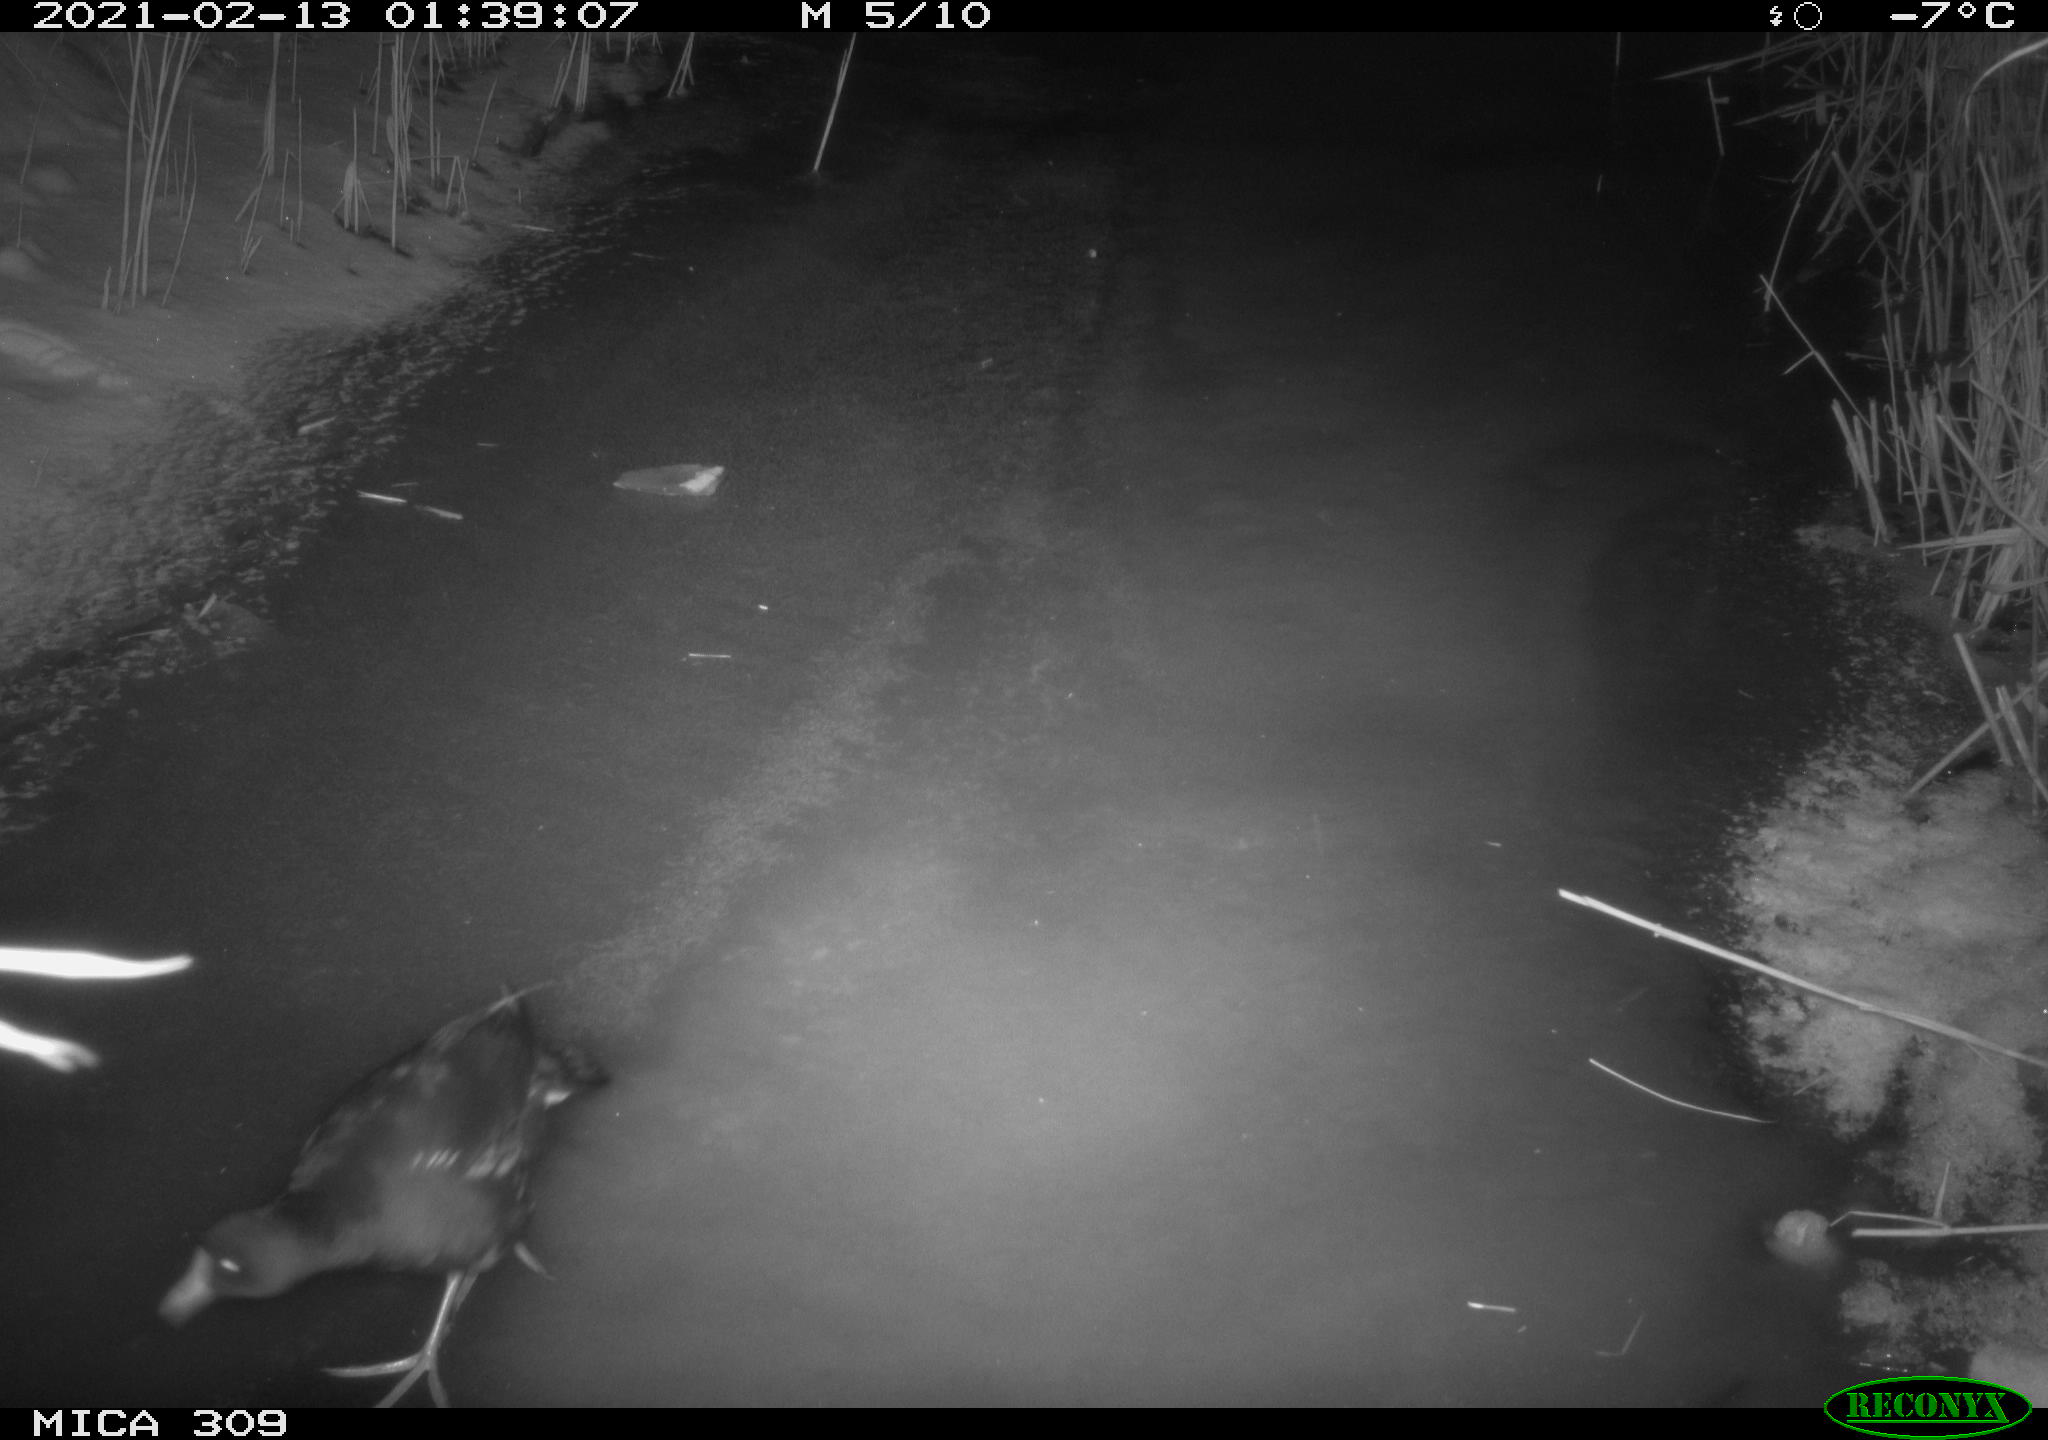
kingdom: Animalia
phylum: Chordata
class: Aves
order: Gruiformes
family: Rallidae
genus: Gallinula
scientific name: Gallinula chloropus
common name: Common moorhen
